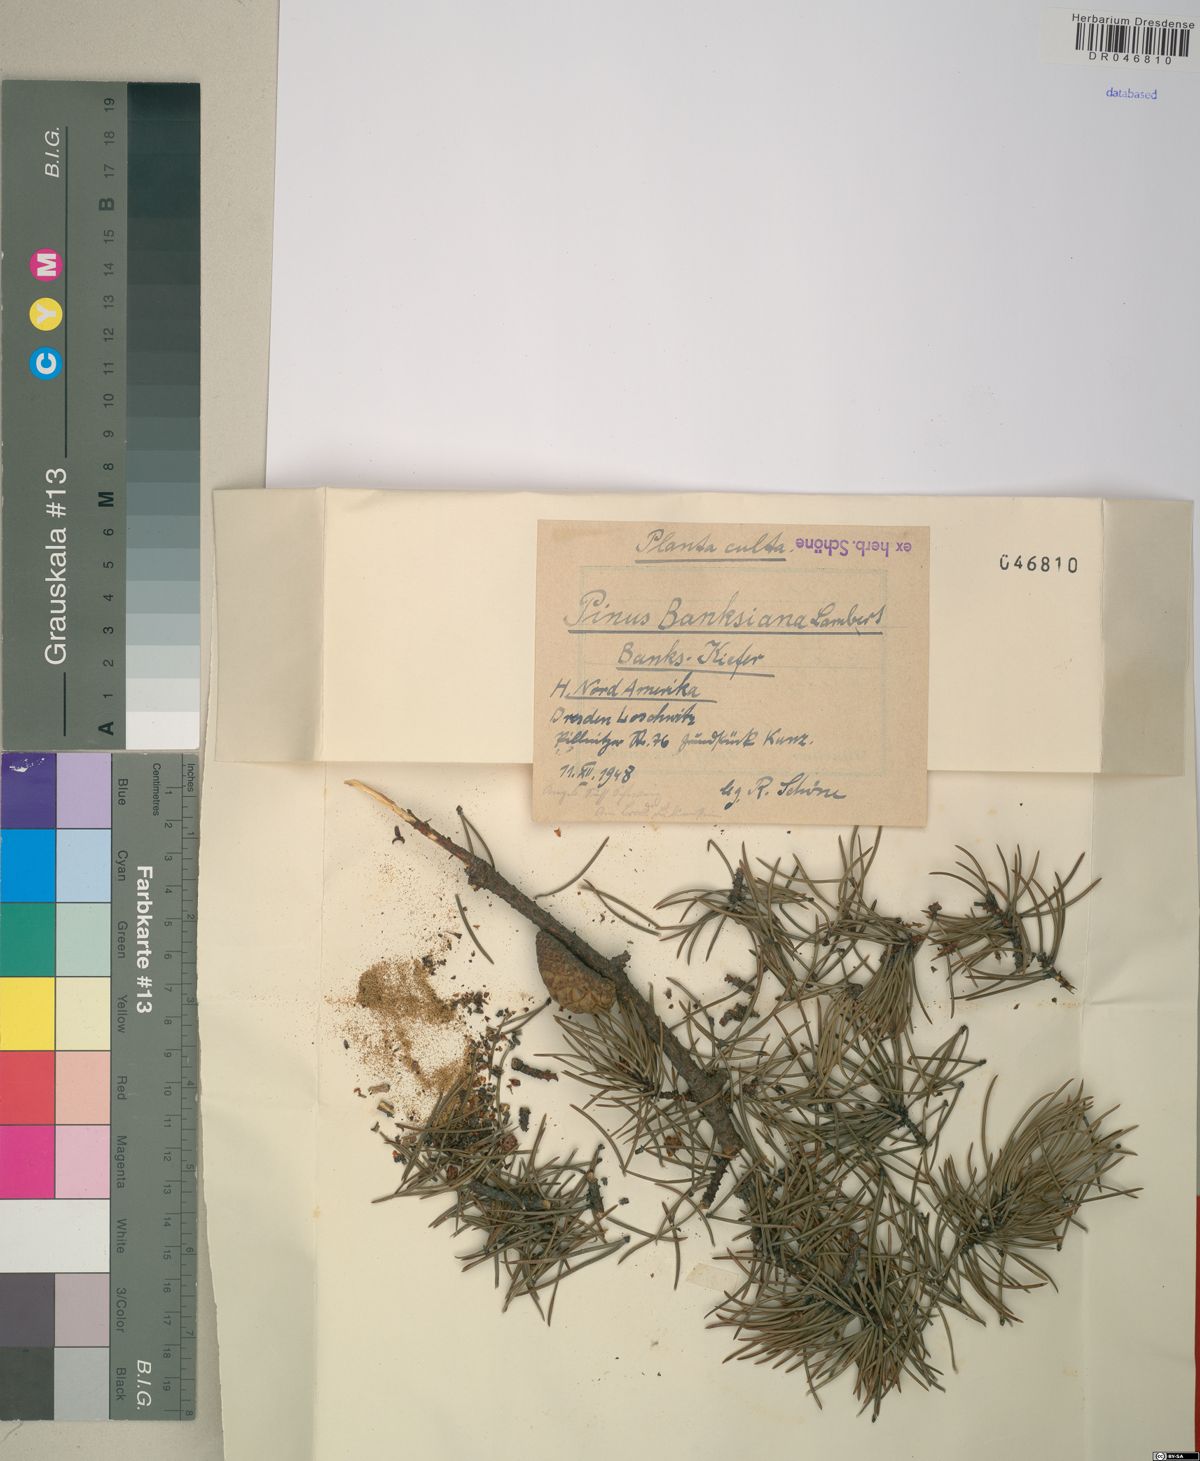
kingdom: Plantae
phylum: Tracheophyta
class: Pinopsida
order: Pinales
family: Pinaceae
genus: Pinus
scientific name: Pinus banksiana
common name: Jack pine
